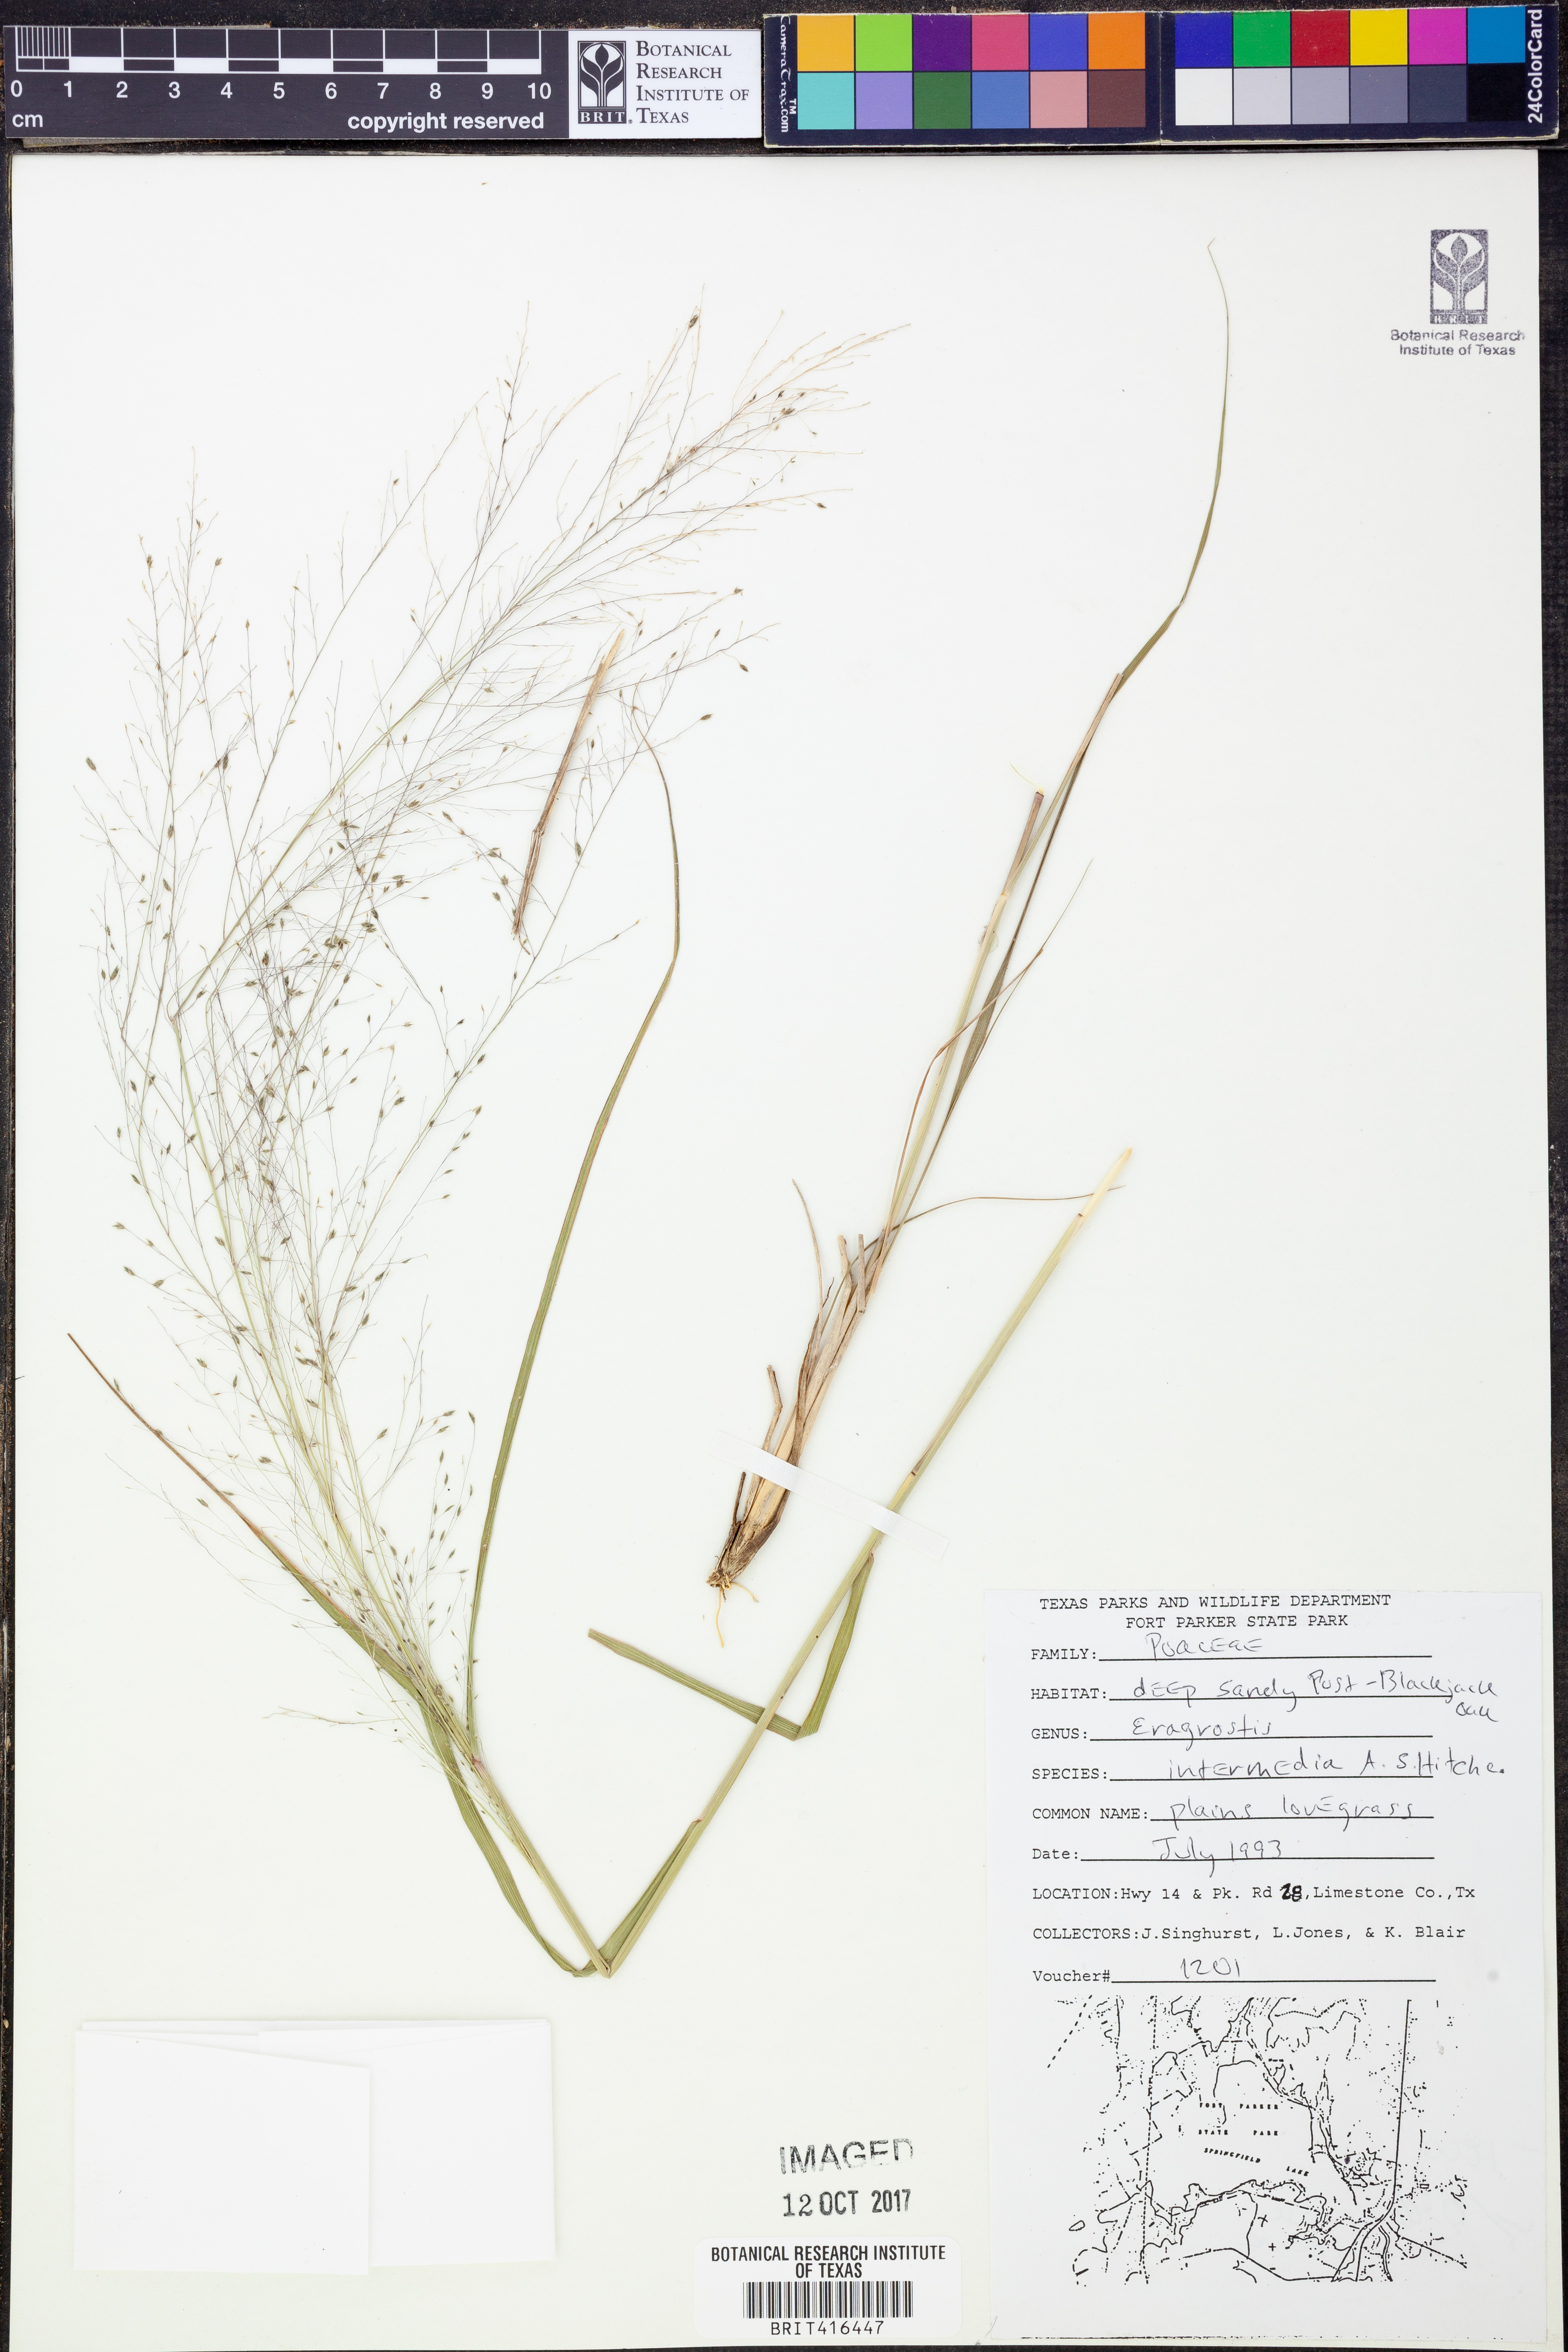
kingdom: Plantae
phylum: Tracheophyta
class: Liliopsida
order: Poales
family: Poaceae
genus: Eragrostis
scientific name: Eragrostis intermedia
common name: Plains love grass
